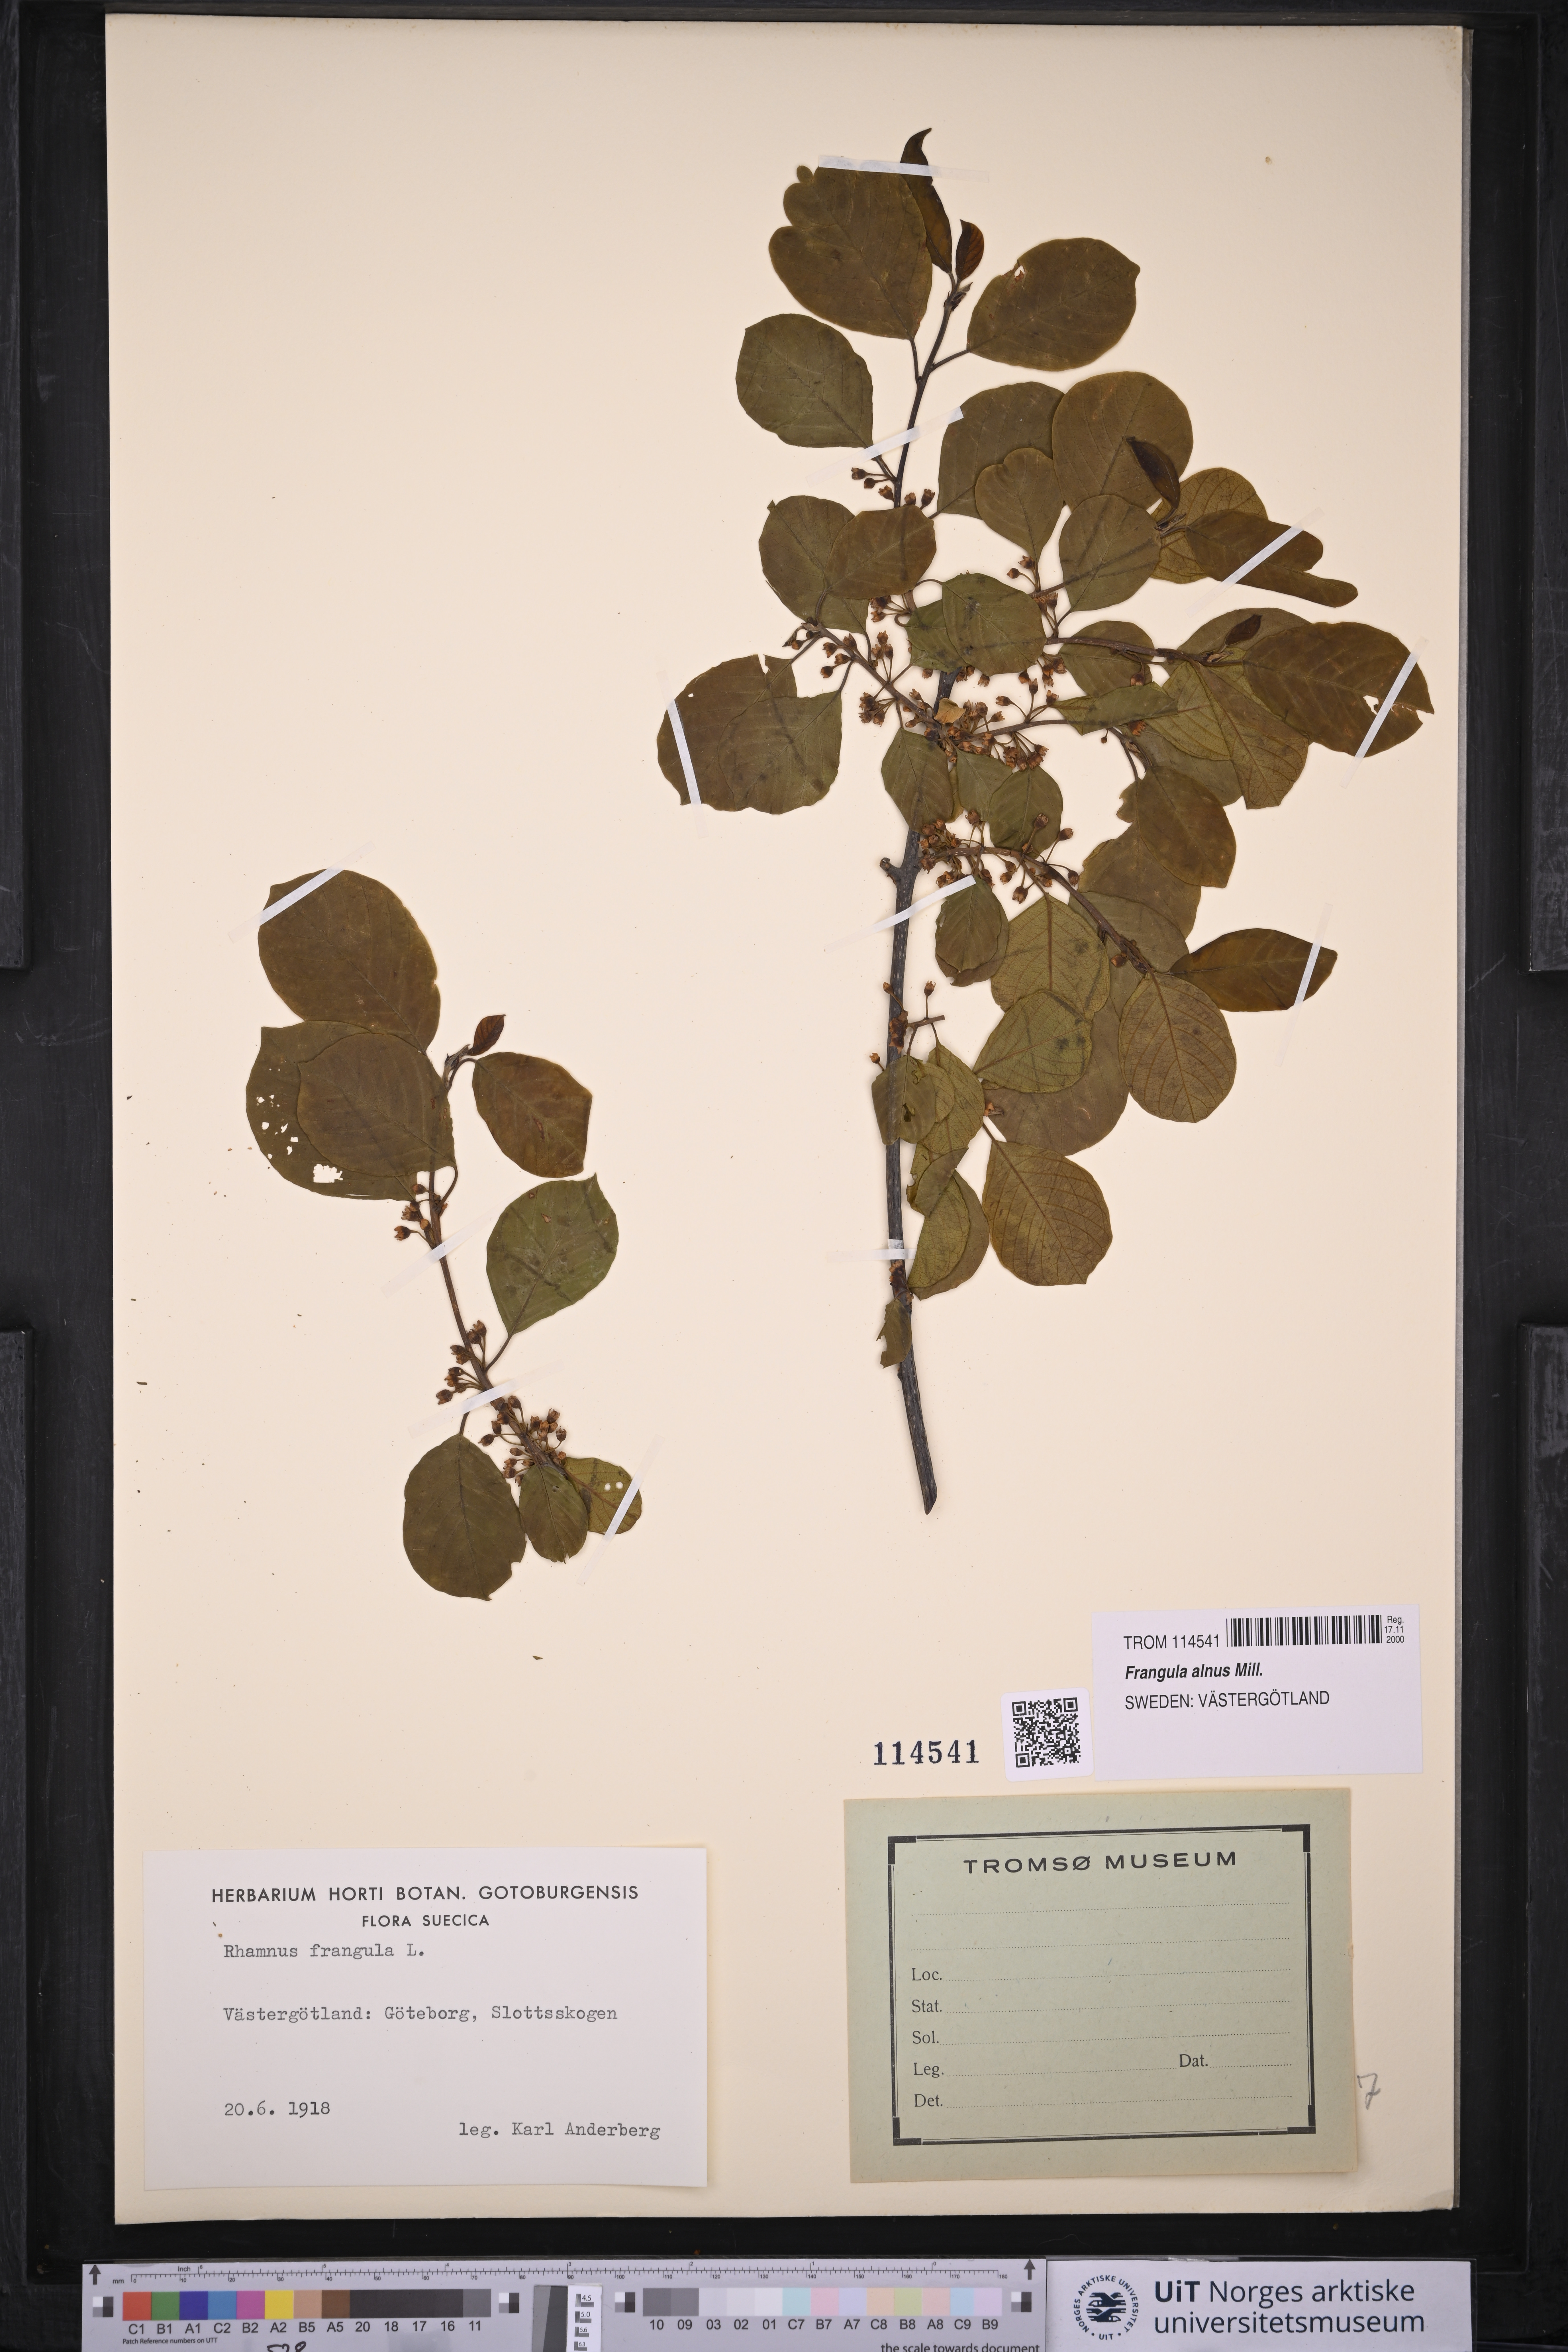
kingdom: Plantae
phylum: Tracheophyta
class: Magnoliopsida
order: Rosales
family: Rhamnaceae
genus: Frangula
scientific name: Frangula alnus
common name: Alder buckthorn
